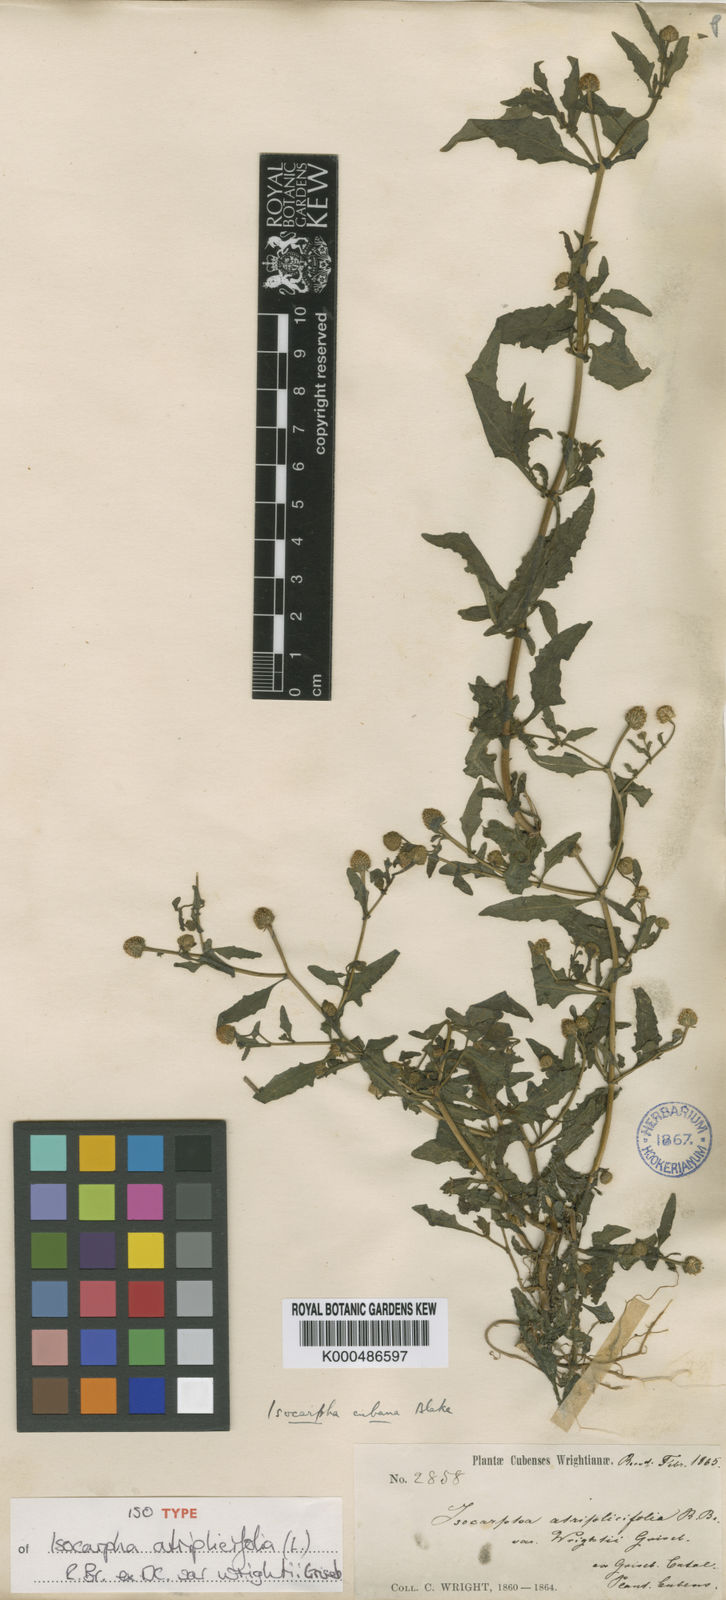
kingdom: Plantae
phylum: Tracheophyta
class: Magnoliopsida
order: Asterales
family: Asteraceae
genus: Isocarpha
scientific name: Isocarpha atriplicifolia
